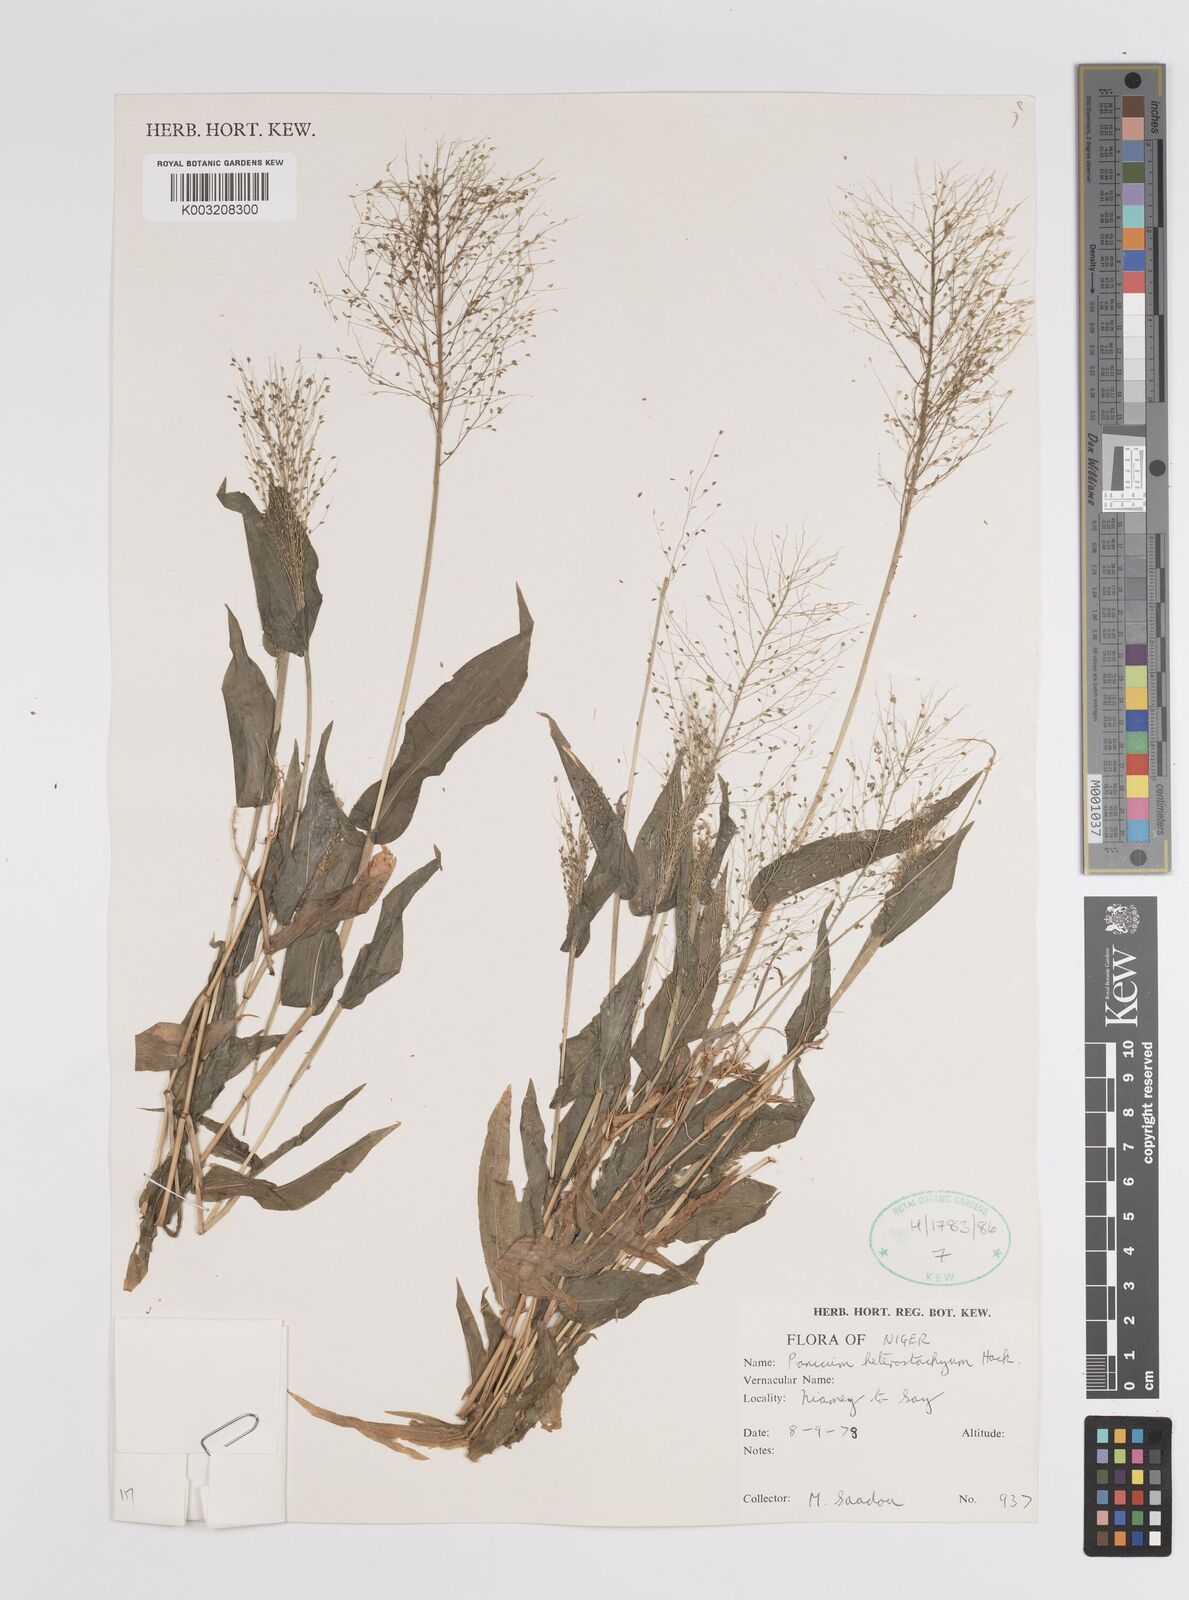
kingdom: Plantae
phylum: Tracheophyta
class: Liliopsida
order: Poales
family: Poaceae
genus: Panicum
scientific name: Panicum hirtum
